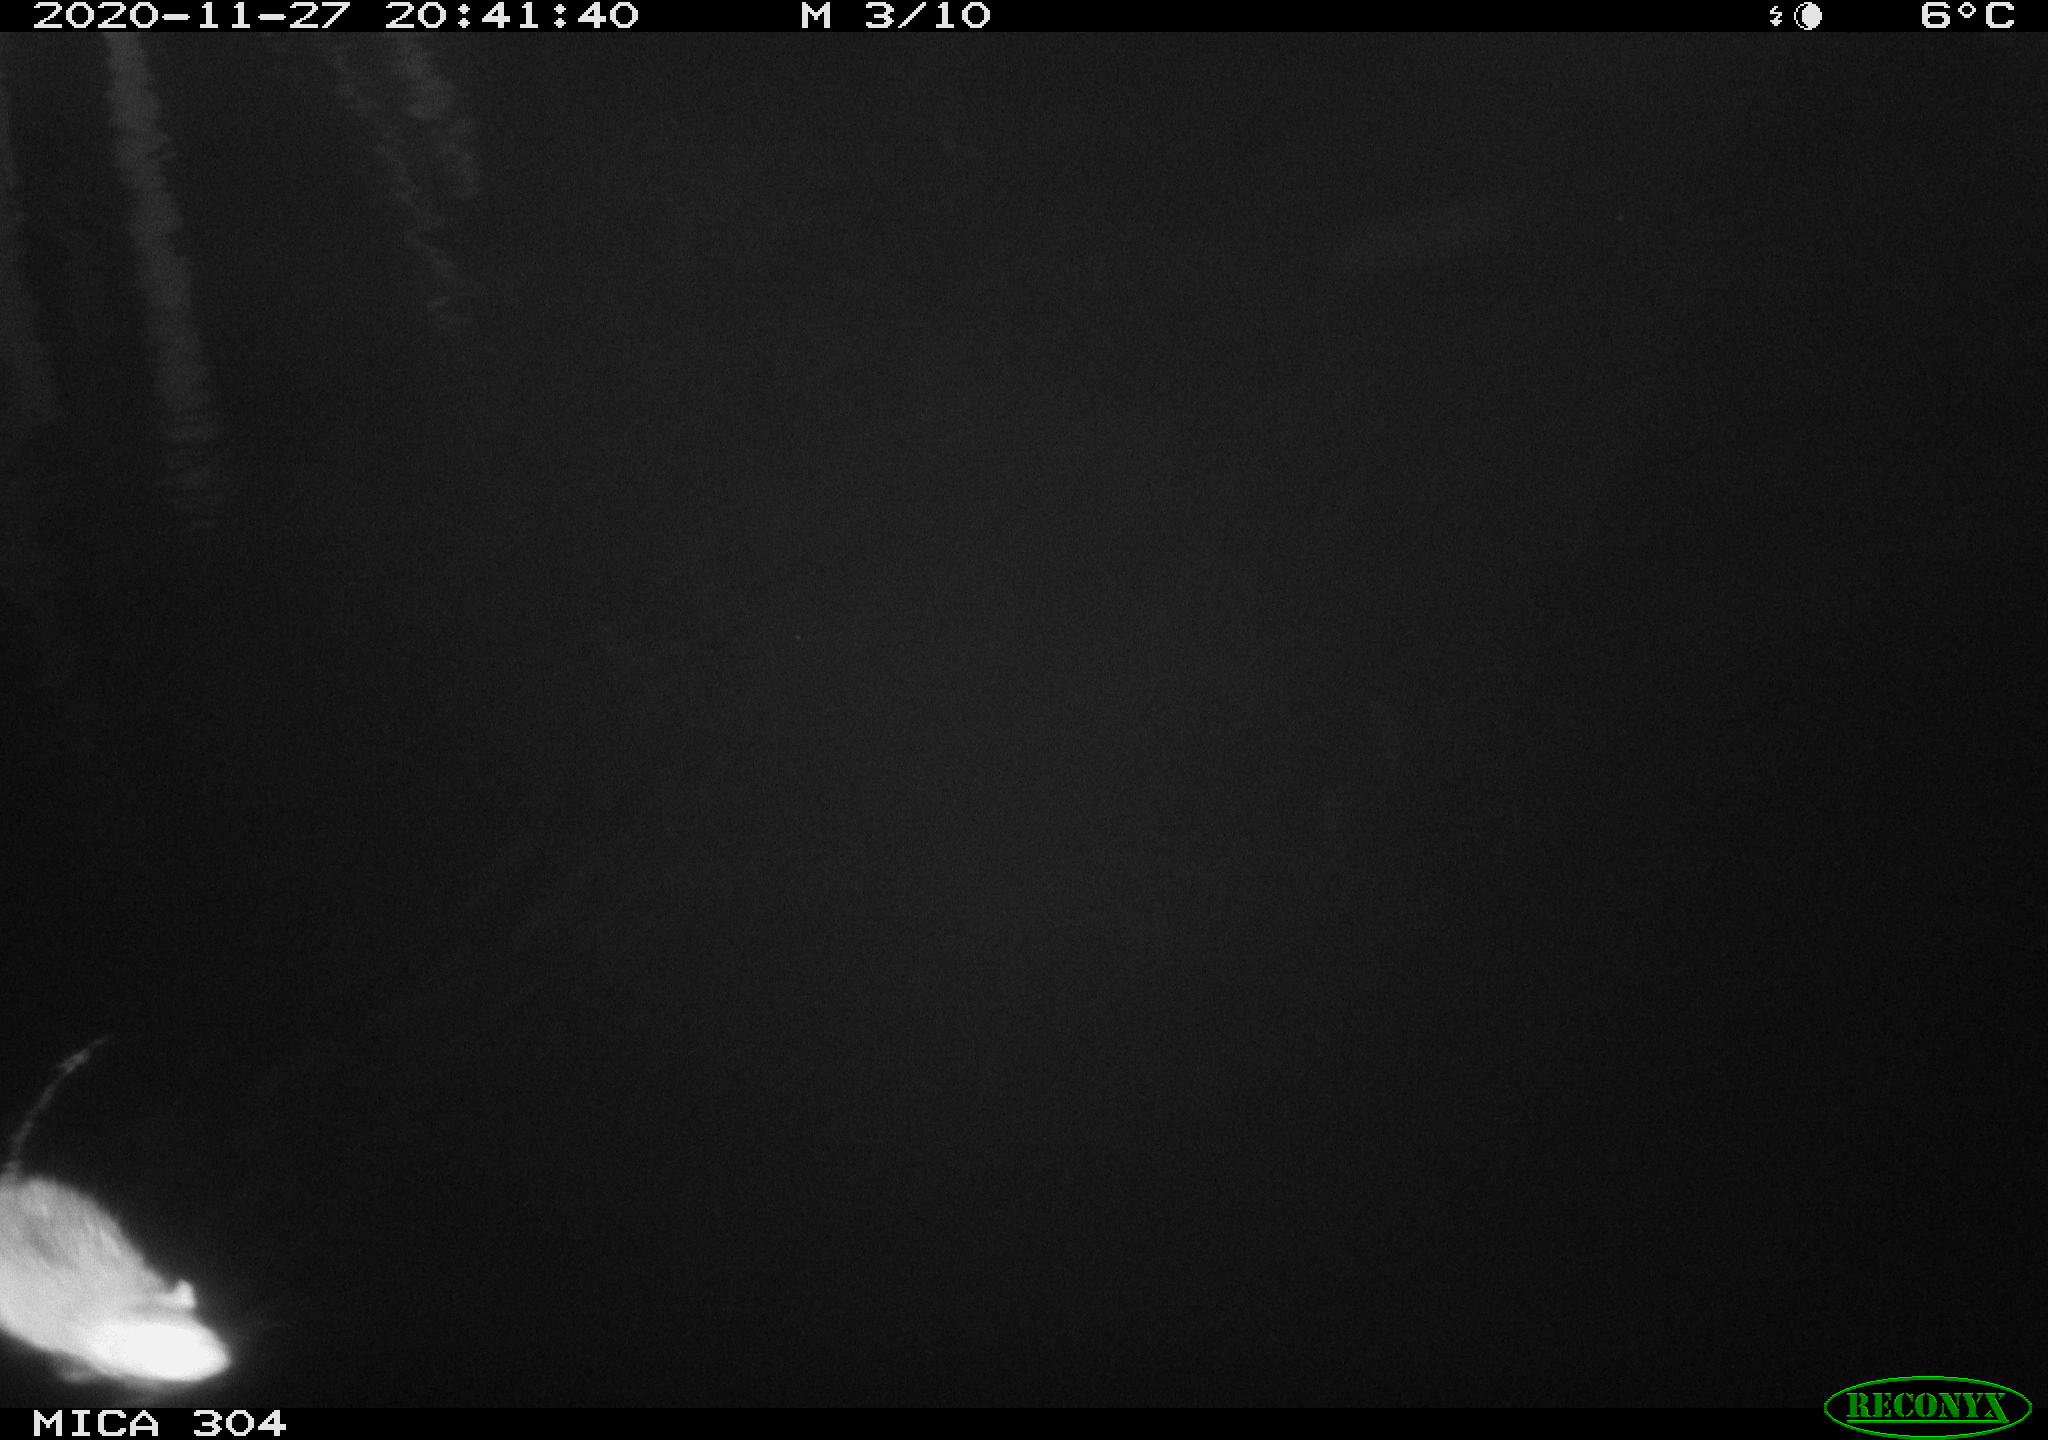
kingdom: Animalia
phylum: Chordata
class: Mammalia
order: Rodentia
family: Muridae
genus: Rattus
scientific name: Rattus norvegicus
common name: Brown rat
